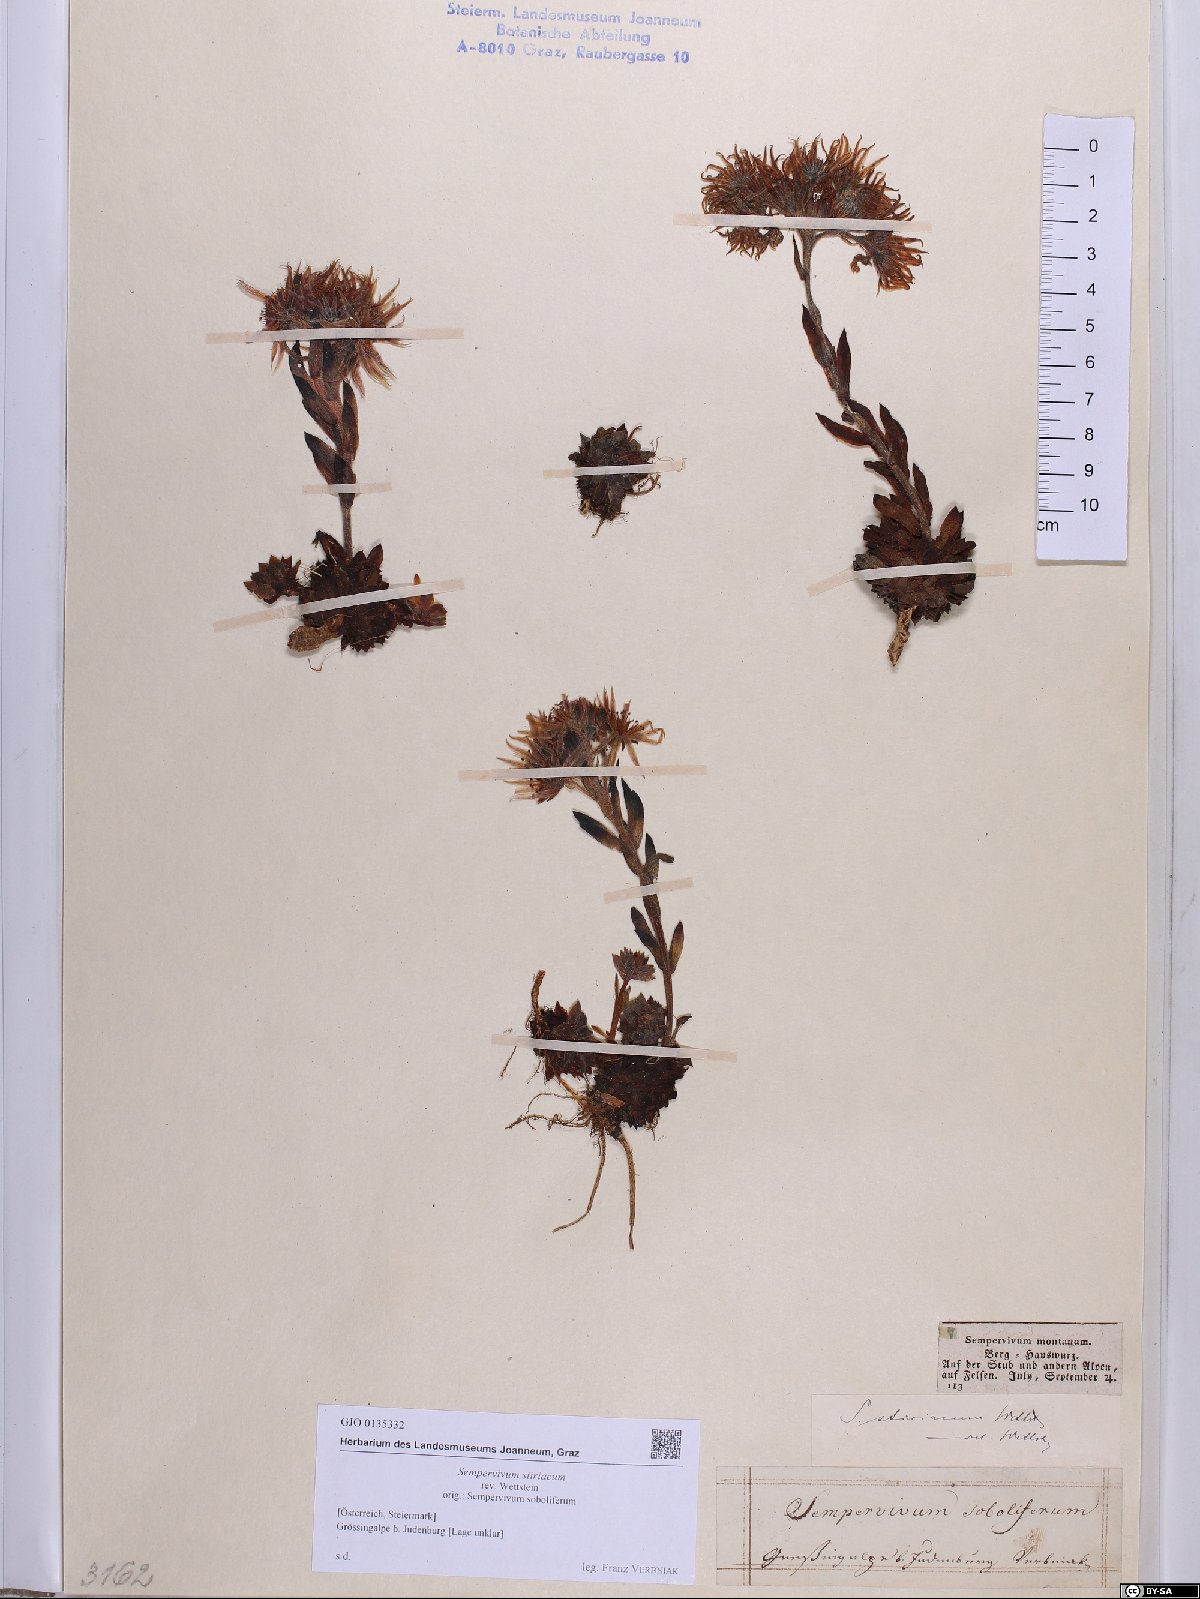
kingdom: Plantae
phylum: Tracheophyta
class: Magnoliopsida
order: Saxifragales
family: Crassulaceae
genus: Sempervivum
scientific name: Sempervivum montanum
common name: Mountain house-leek
